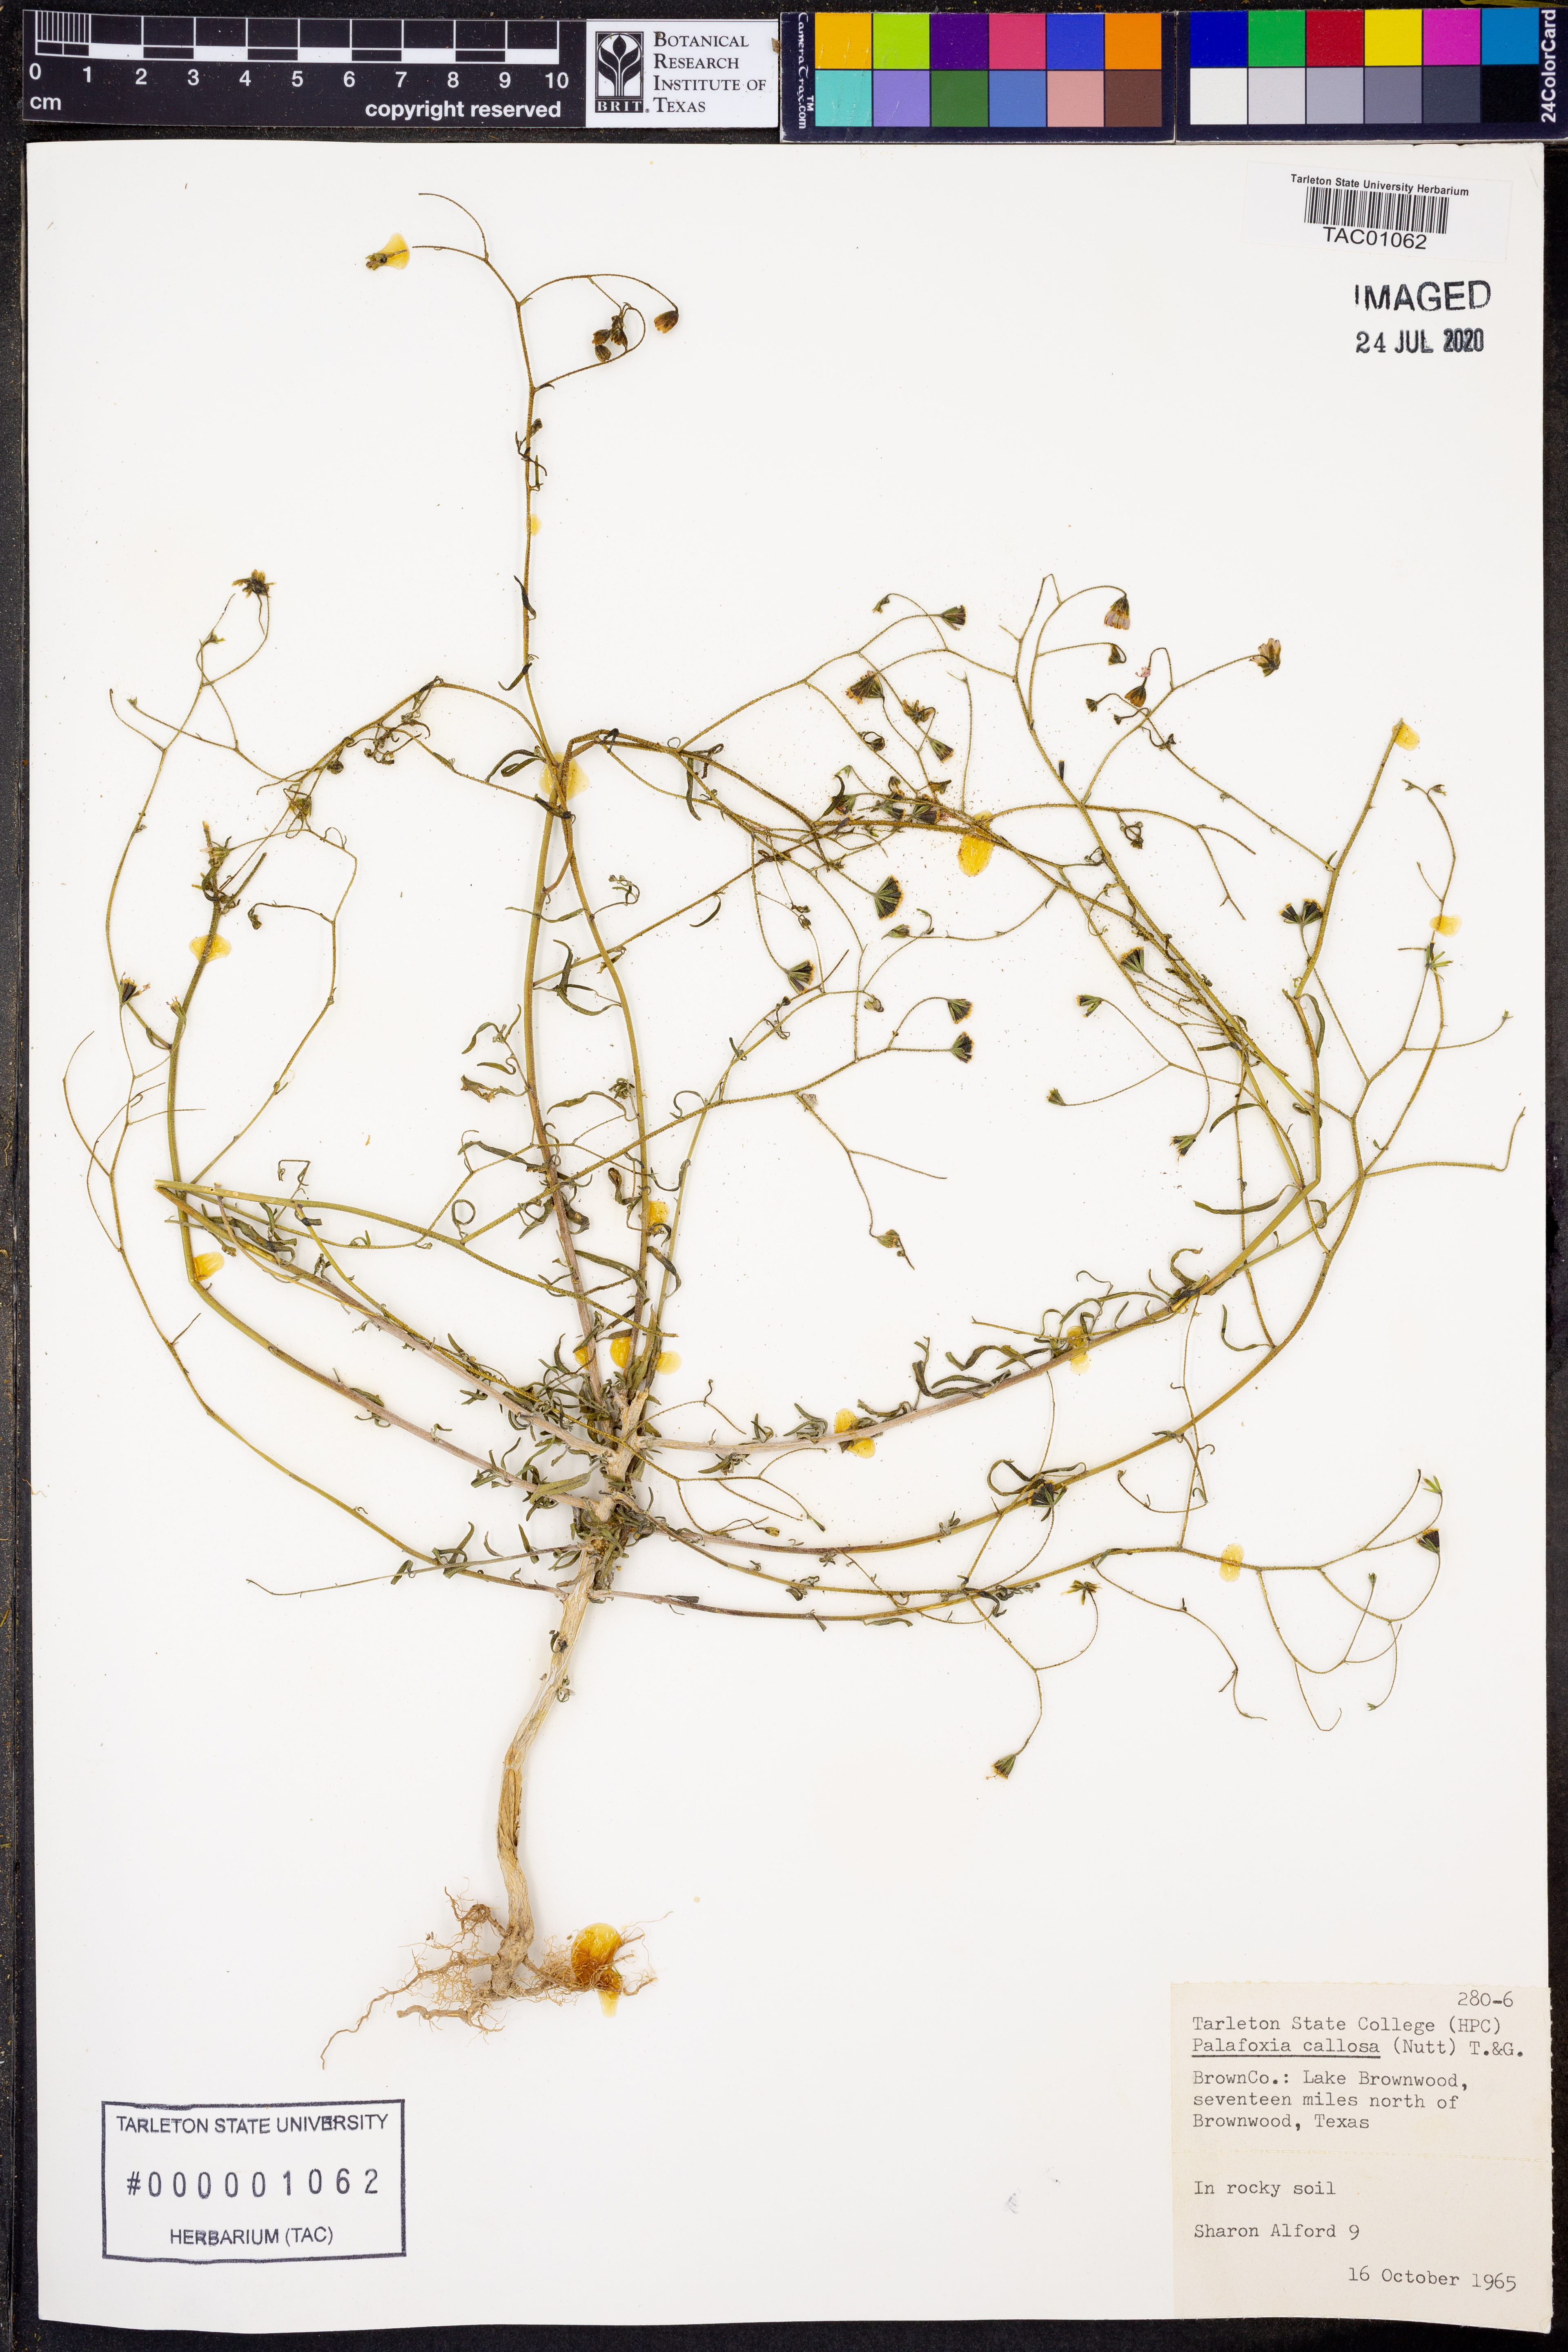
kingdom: Plantae
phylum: Tracheophyta
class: Magnoliopsida
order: Asterales
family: Asteraceae
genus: Palafoxia
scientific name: Palafoxia callosa
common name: Small palafox
